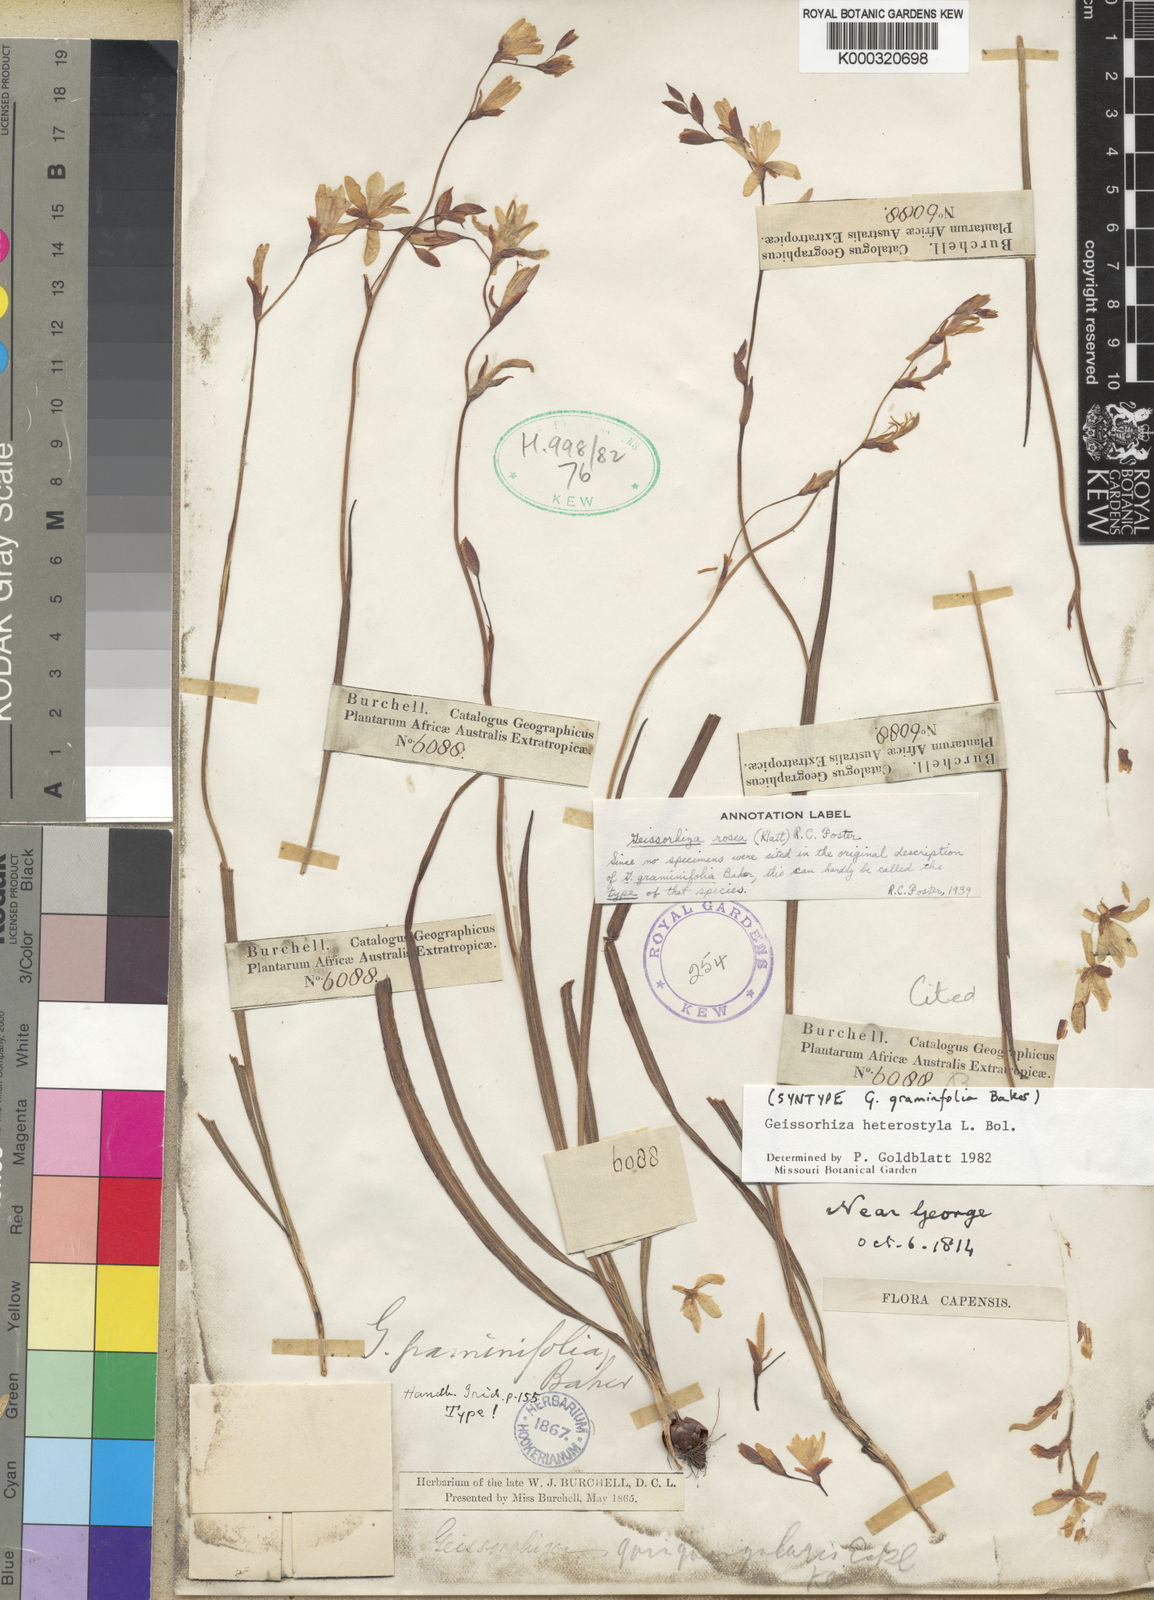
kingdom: Plantae
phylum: Tracheophyta
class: Liliopsida
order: Asparagales
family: Iridaceae
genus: Geissorhiza
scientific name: Geissorhiza heterostyla
